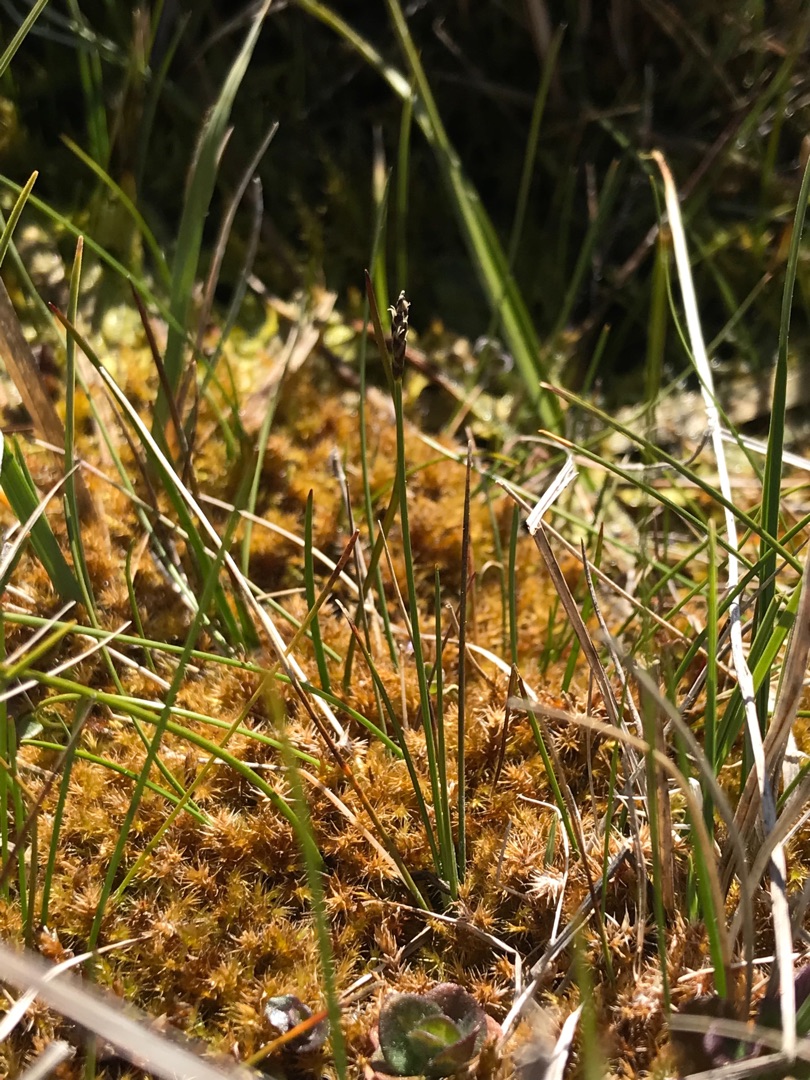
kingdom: Plantae
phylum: Tracheophyta
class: Liliopsida
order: Poales
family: Cyperaceae
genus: Carex
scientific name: Carex dioica
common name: Tvebo star
